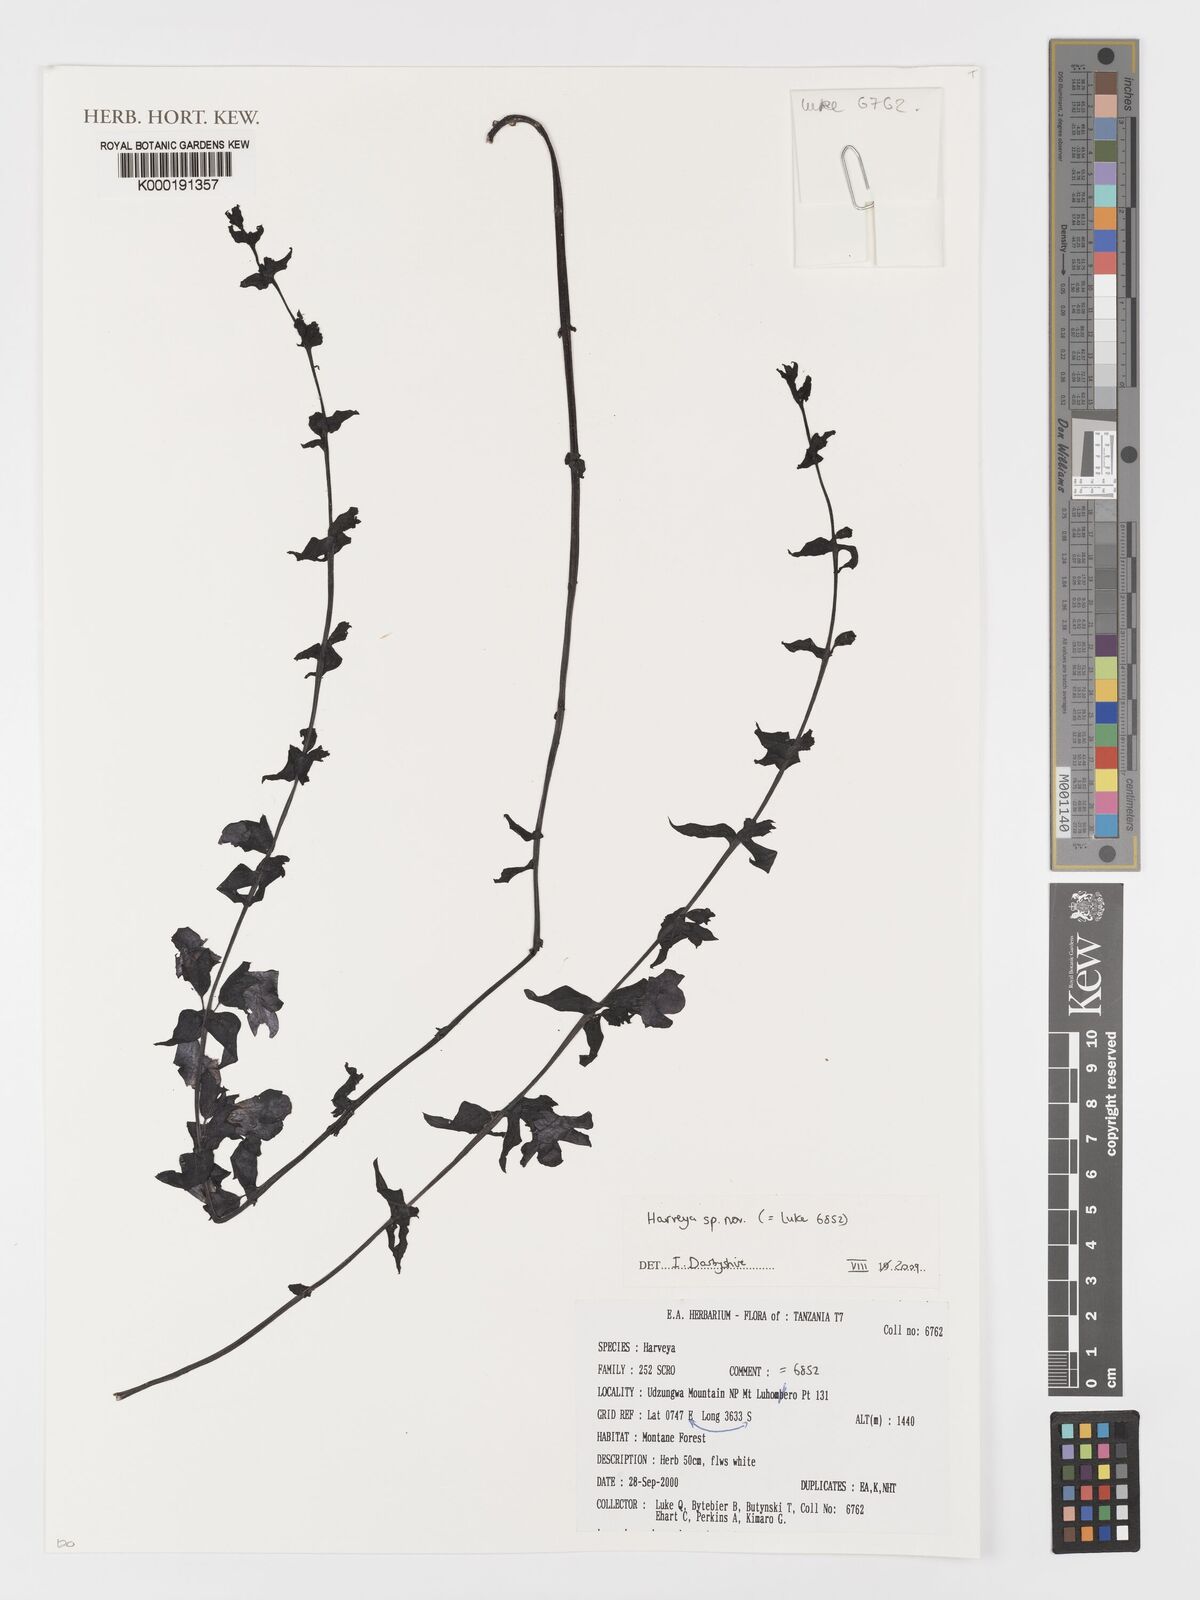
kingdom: Plantae
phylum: Tracheophyta
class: Magnoliopsida
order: Lamiales
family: Orobanchaceae
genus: Harveya
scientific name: Harveya
